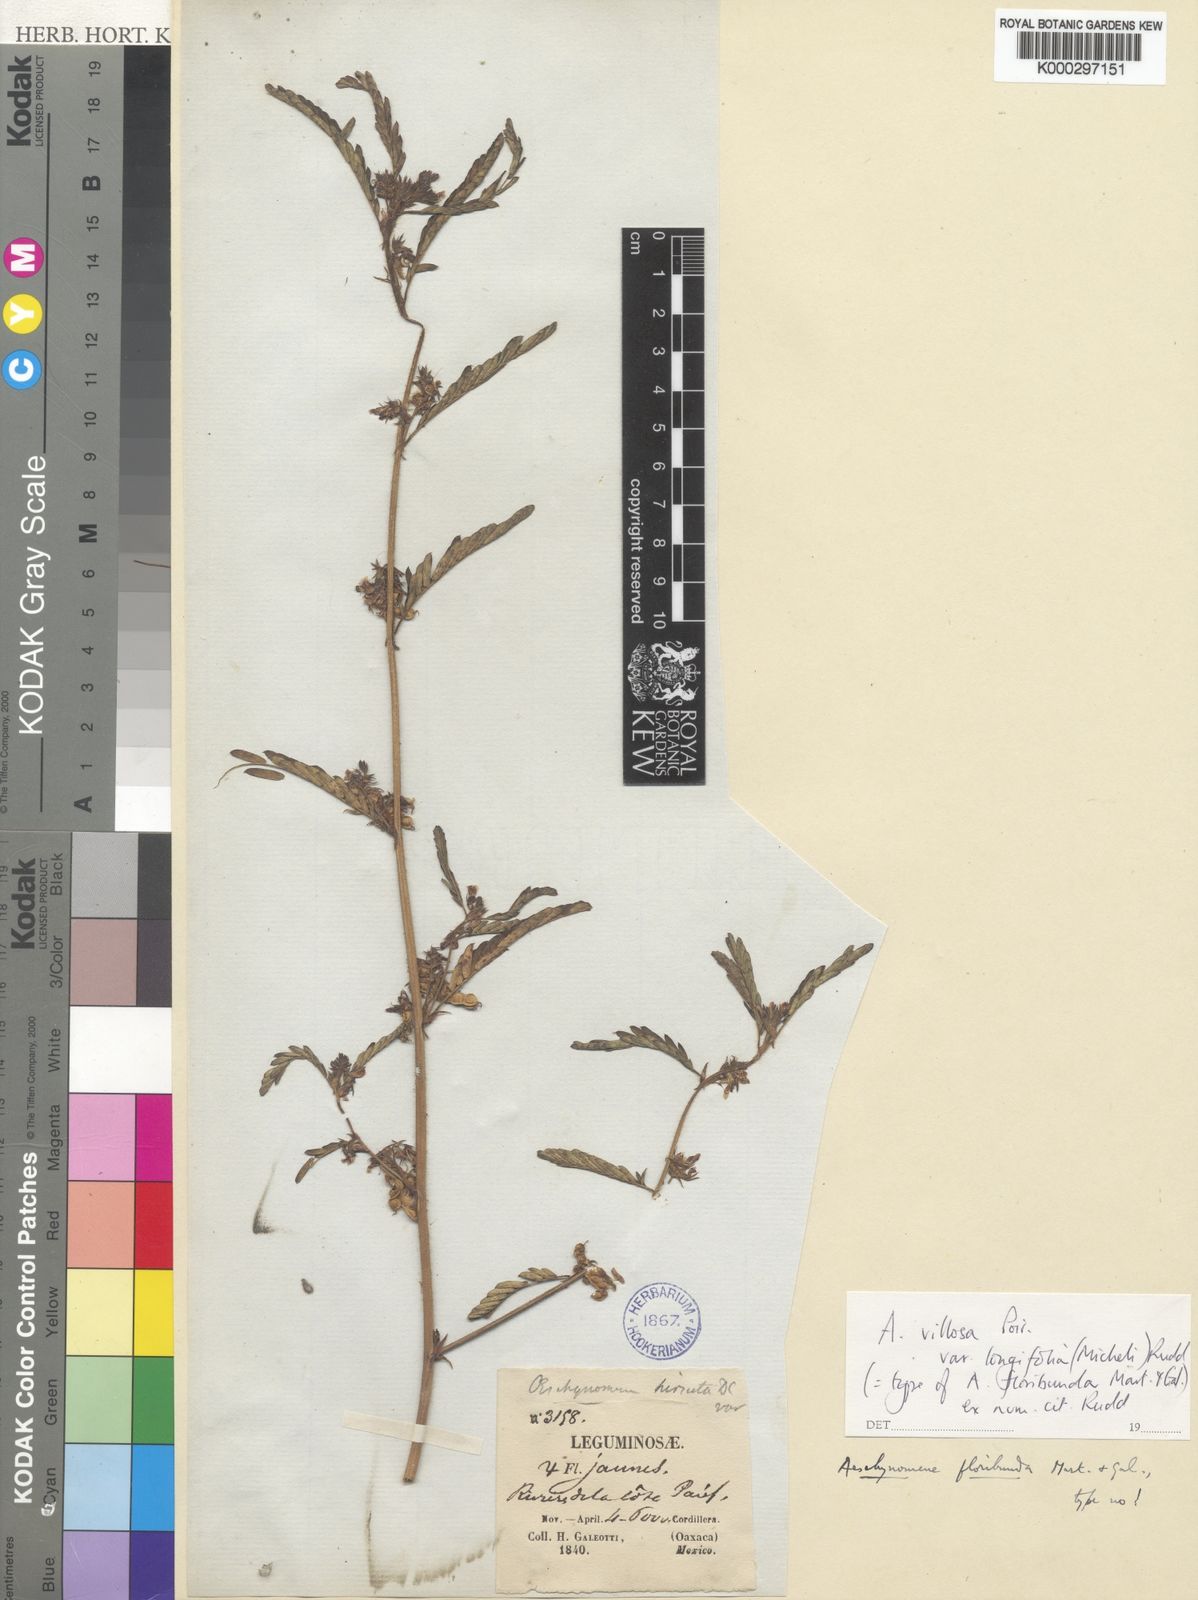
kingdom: Plantae
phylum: Tracheophyta
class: Magnoliopsida
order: Fabales
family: Fabaceae
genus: Aeschynomene
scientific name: Aeschynomene villosa
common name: Hairy-jointvetch
